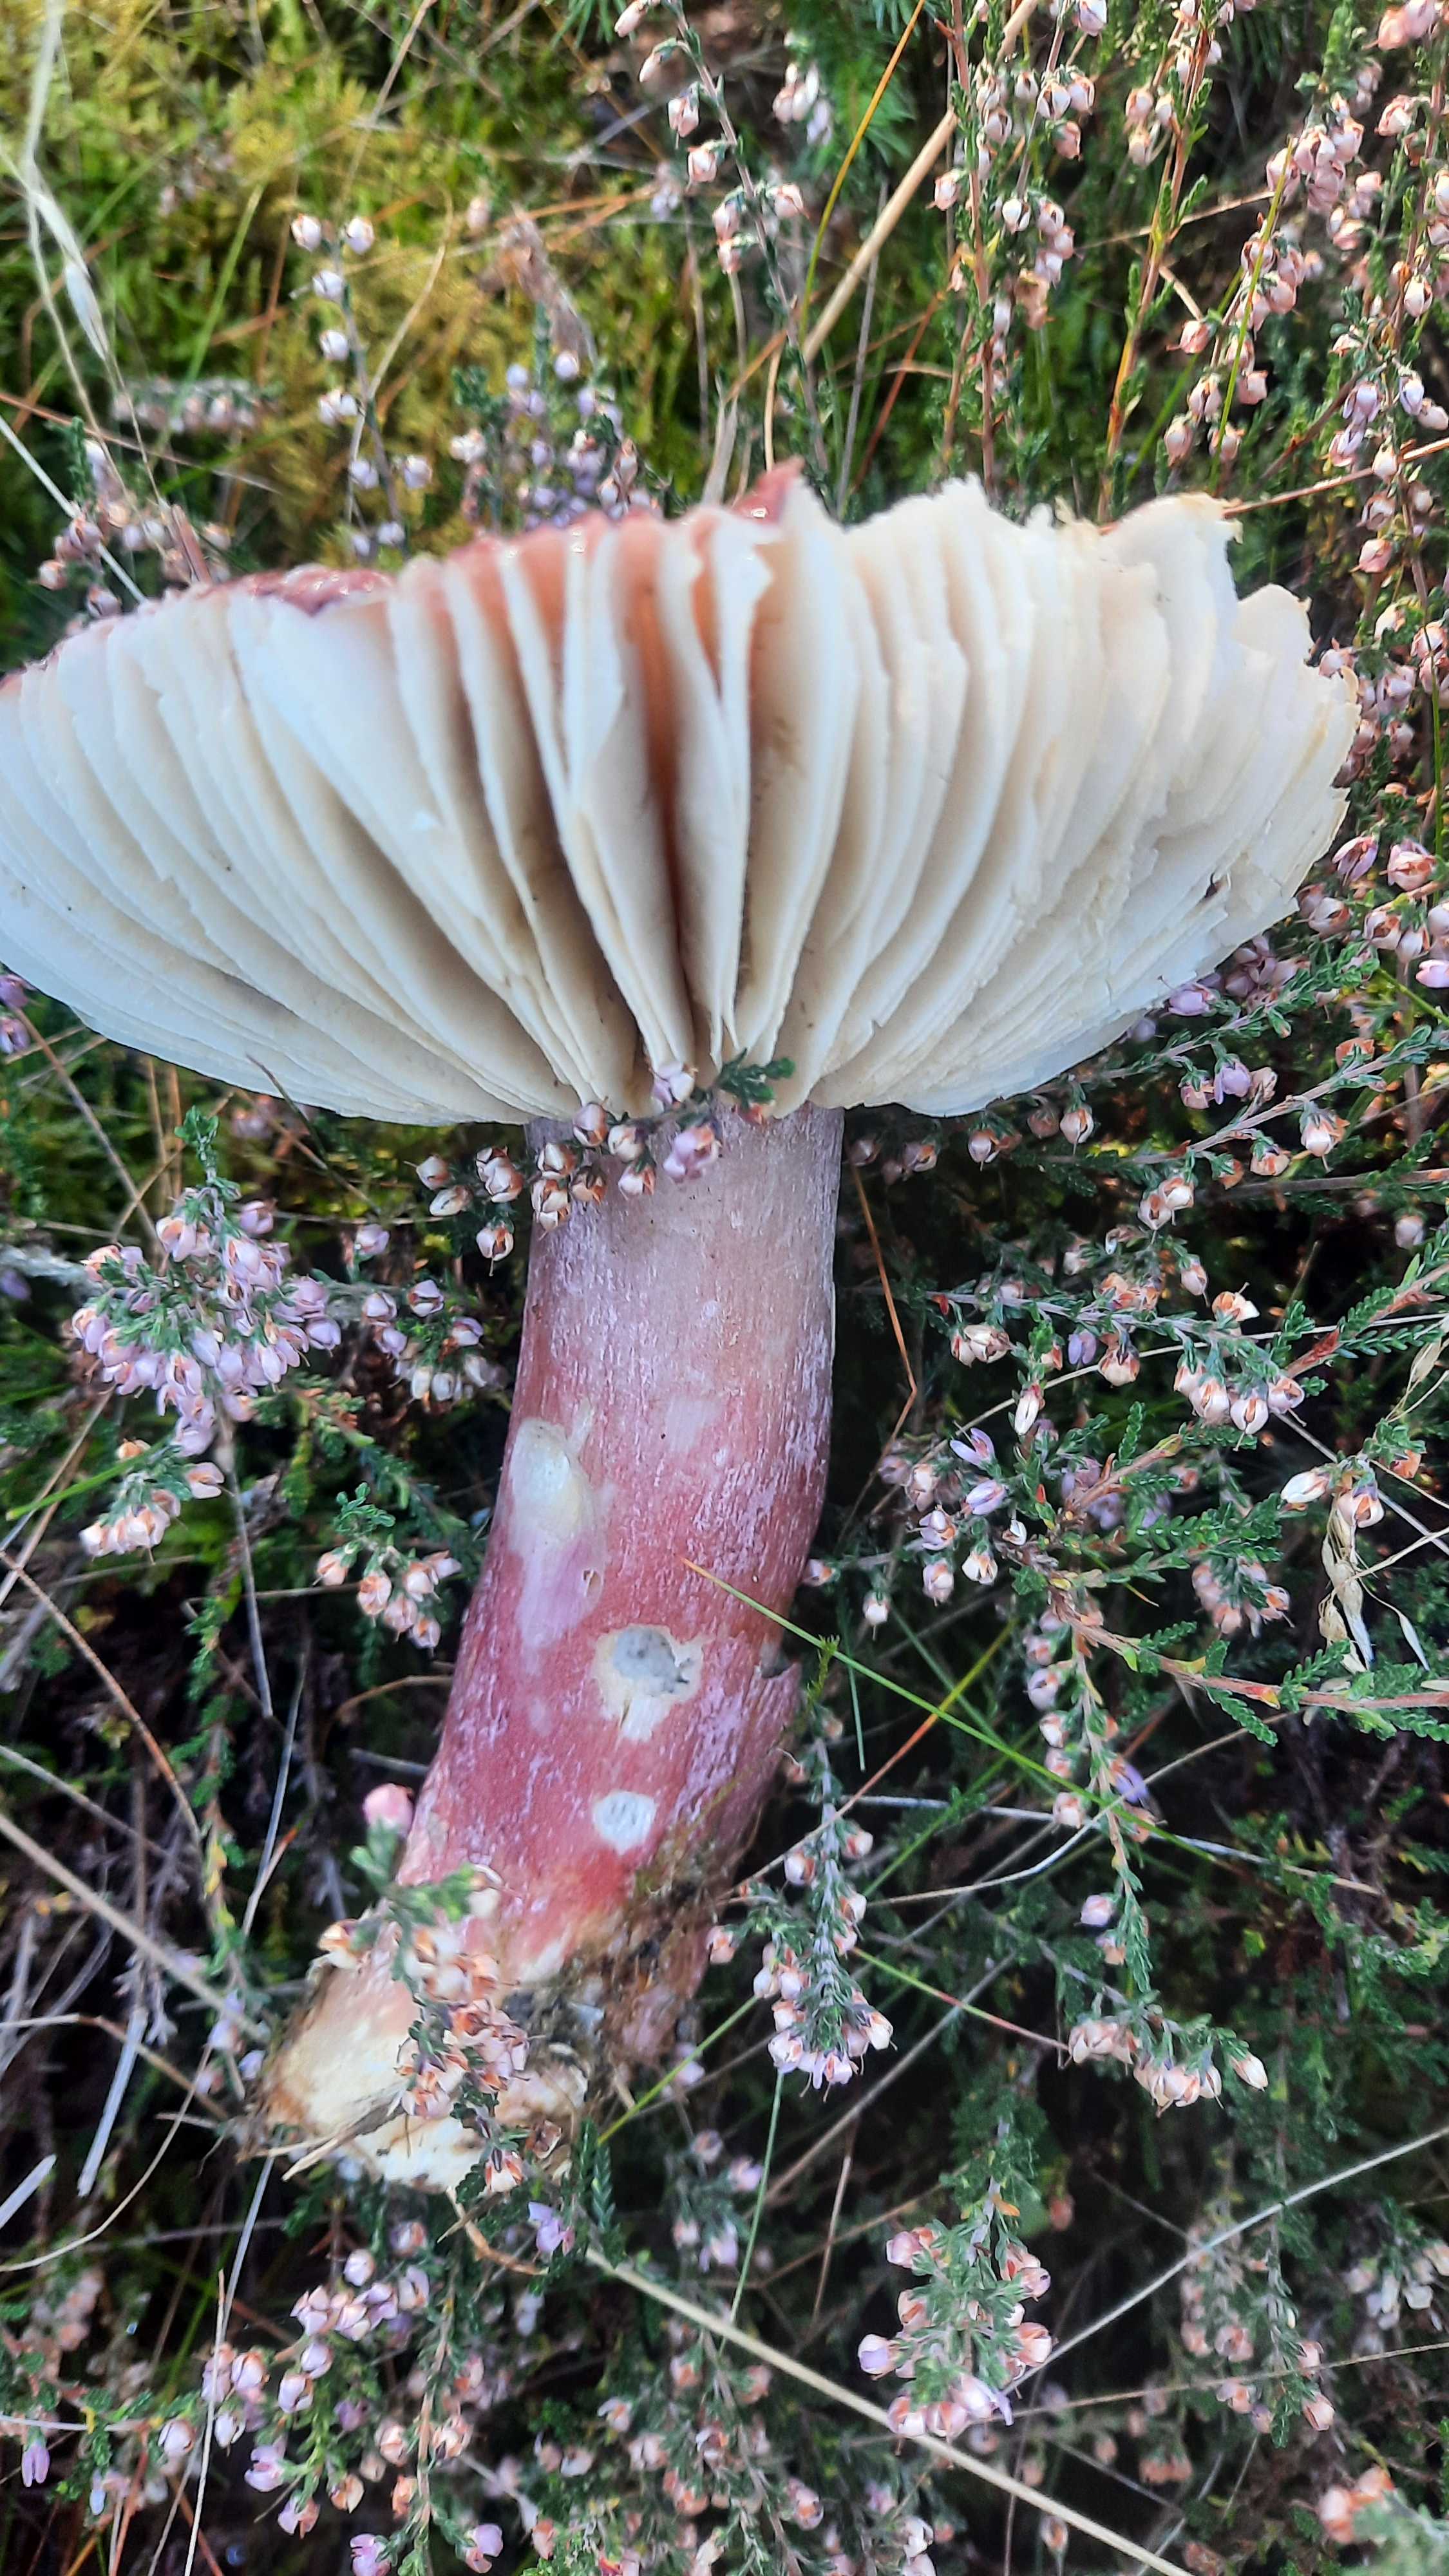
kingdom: Fungi
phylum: Basidiomycota
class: Agaricomycetes
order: Russulales
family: Russulaceae
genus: Russula
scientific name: Russula queletii
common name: Quélets skørhat
